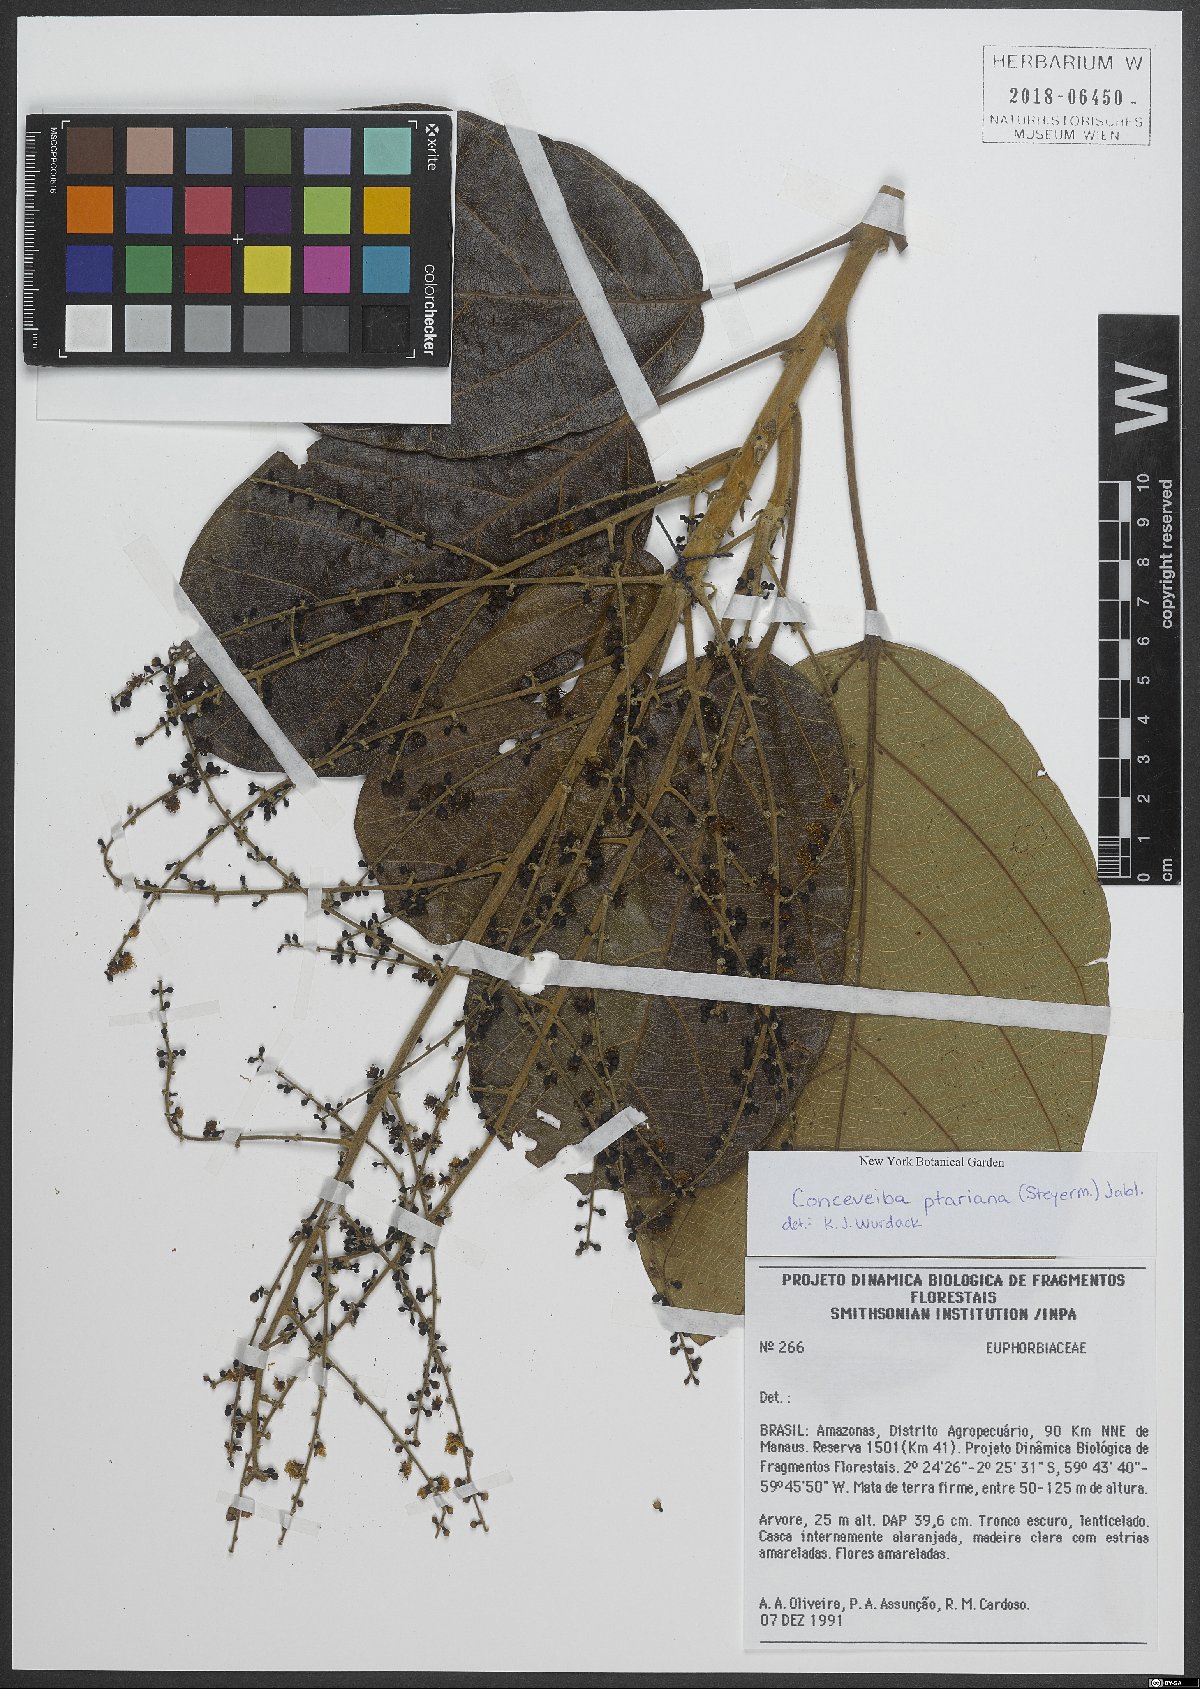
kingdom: Plantae
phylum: Tracheophyta
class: Magnoliopsida
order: Malpighiales
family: Euphorbiaceae
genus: Conceveiba
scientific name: Conceveiba ptariana
